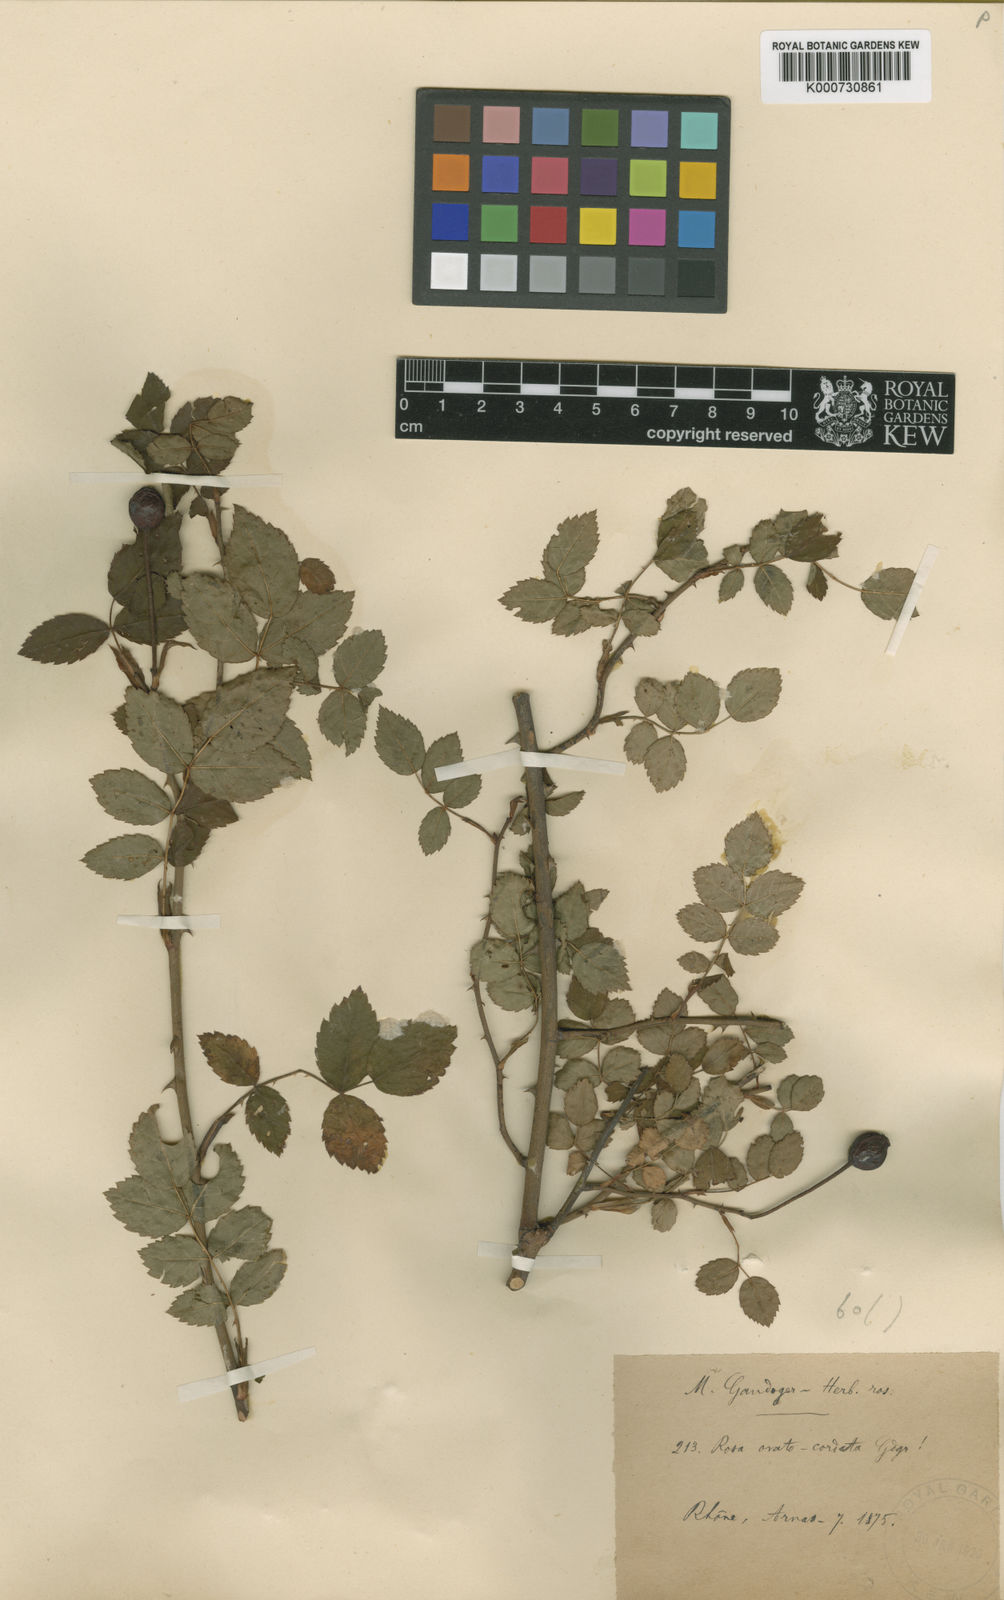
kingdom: Plantae
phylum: Tracheophyta
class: Magnoliopsida
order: Rosales
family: Rosaceae
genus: Rosa
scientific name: Rosa
